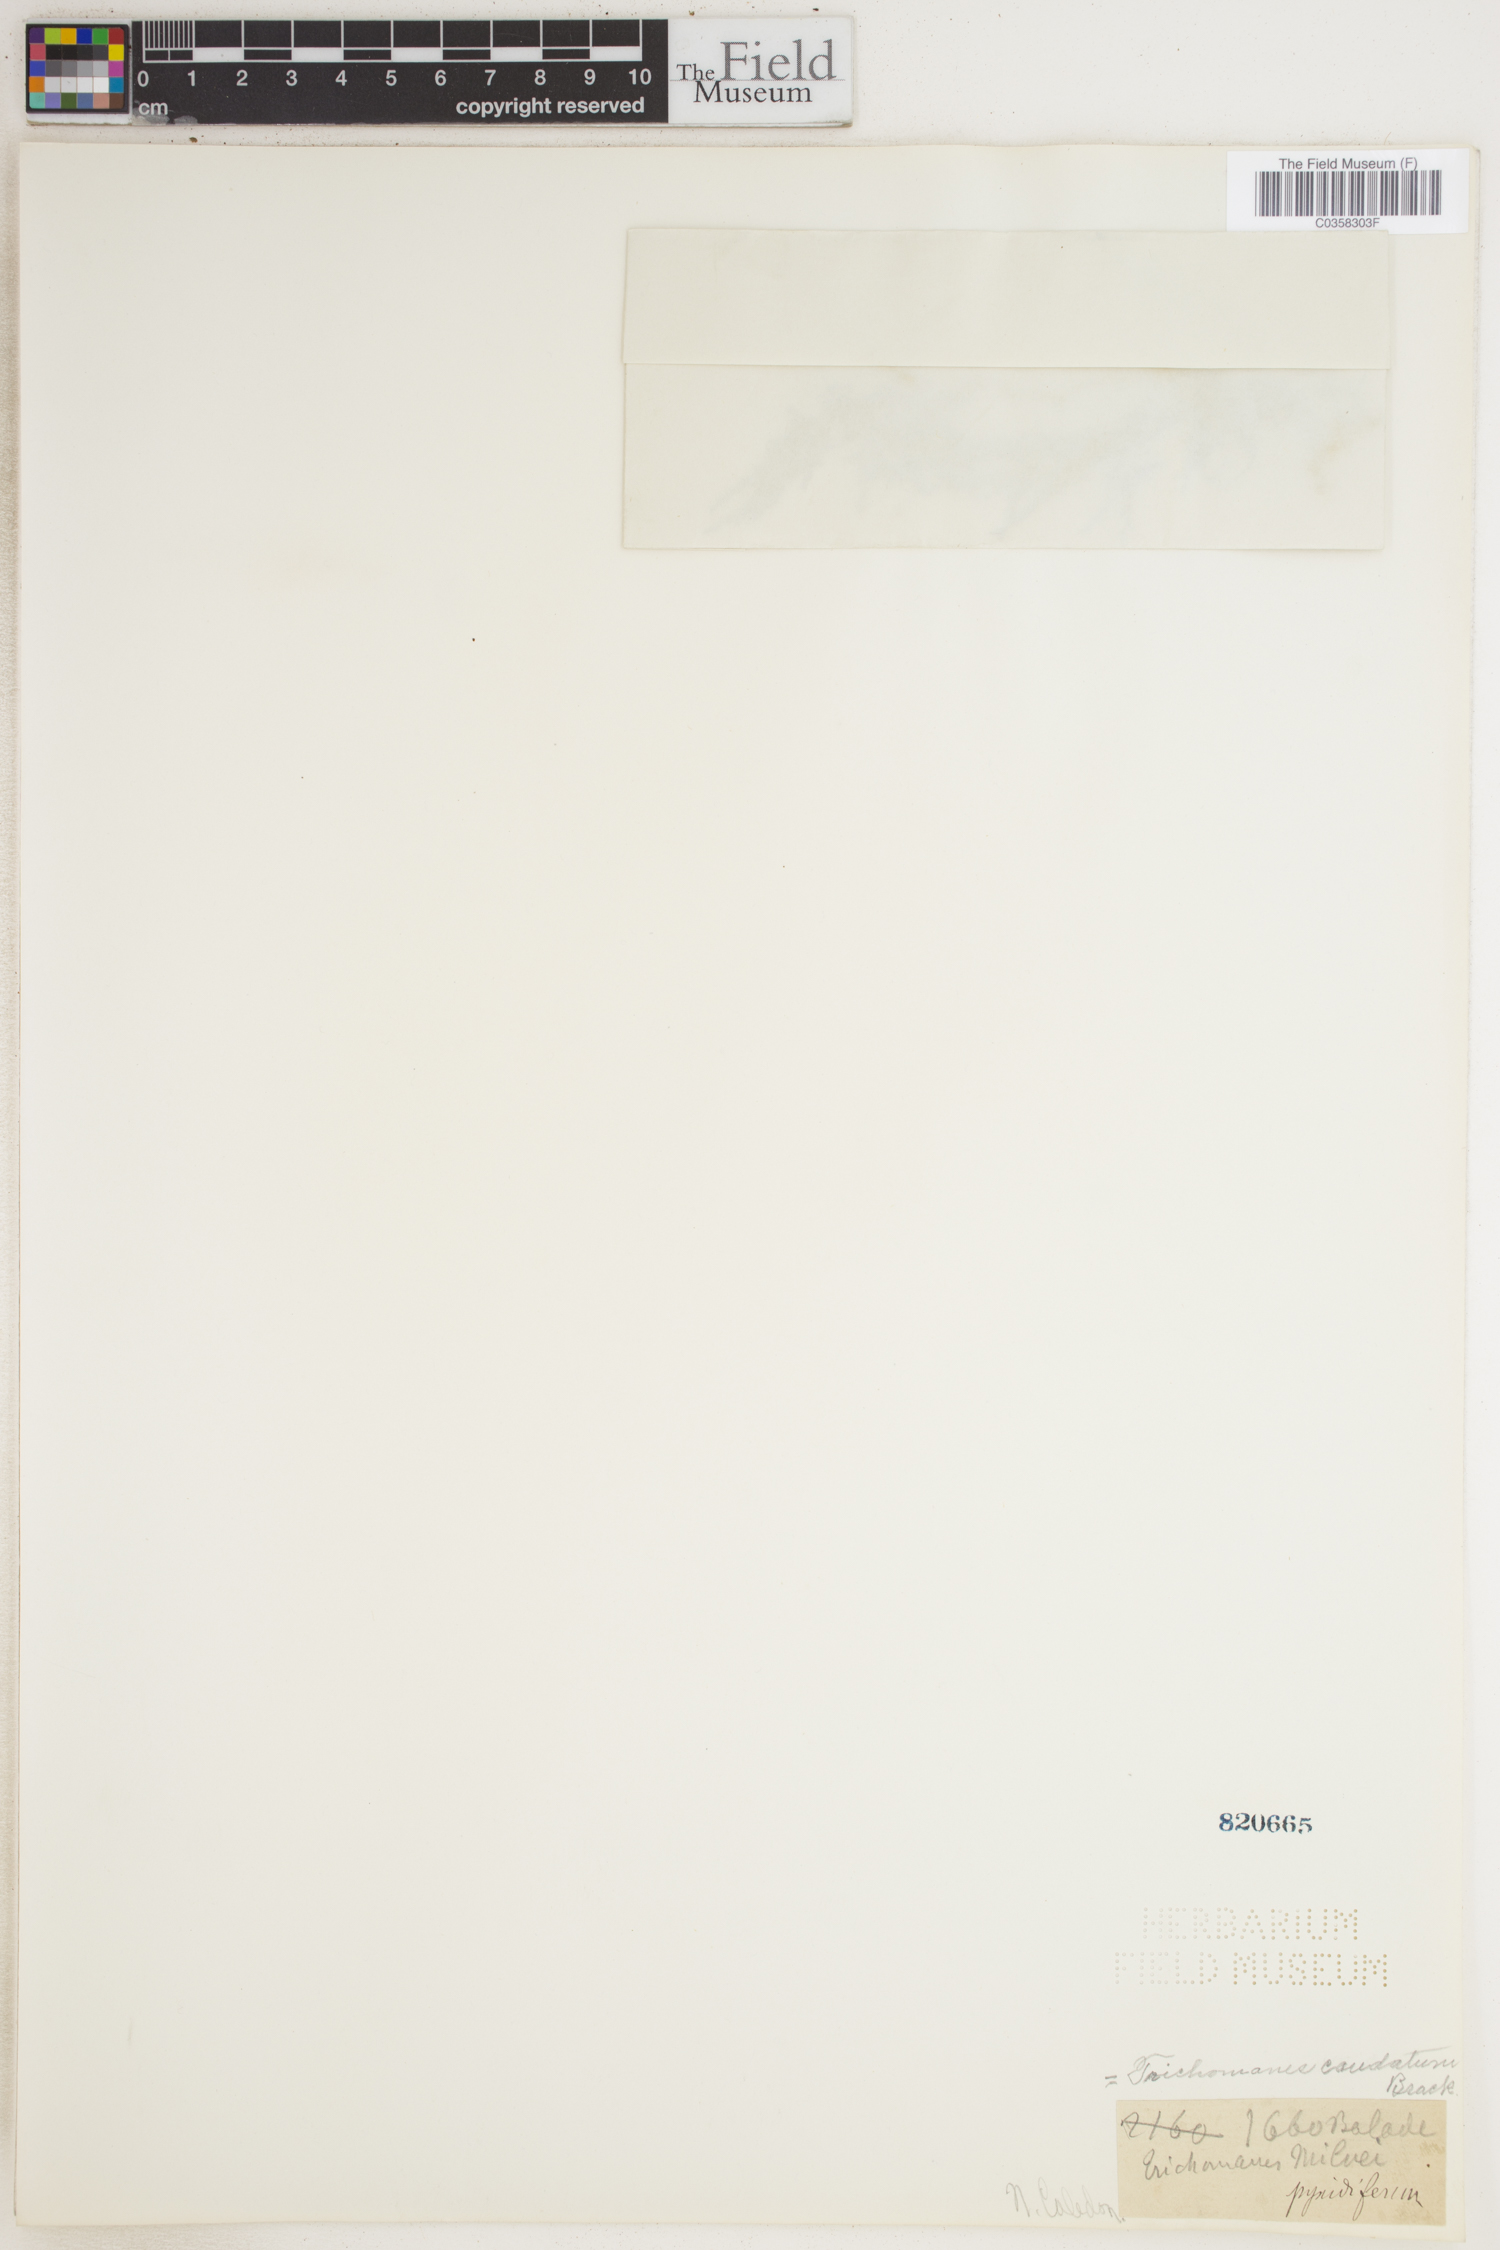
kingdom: Plantae
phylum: Tracheophyta
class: Polypodiopsida
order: Hymenophyllales
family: Hymenophyllaceae
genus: Abrodictyum
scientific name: Abrodictyum caudatum
